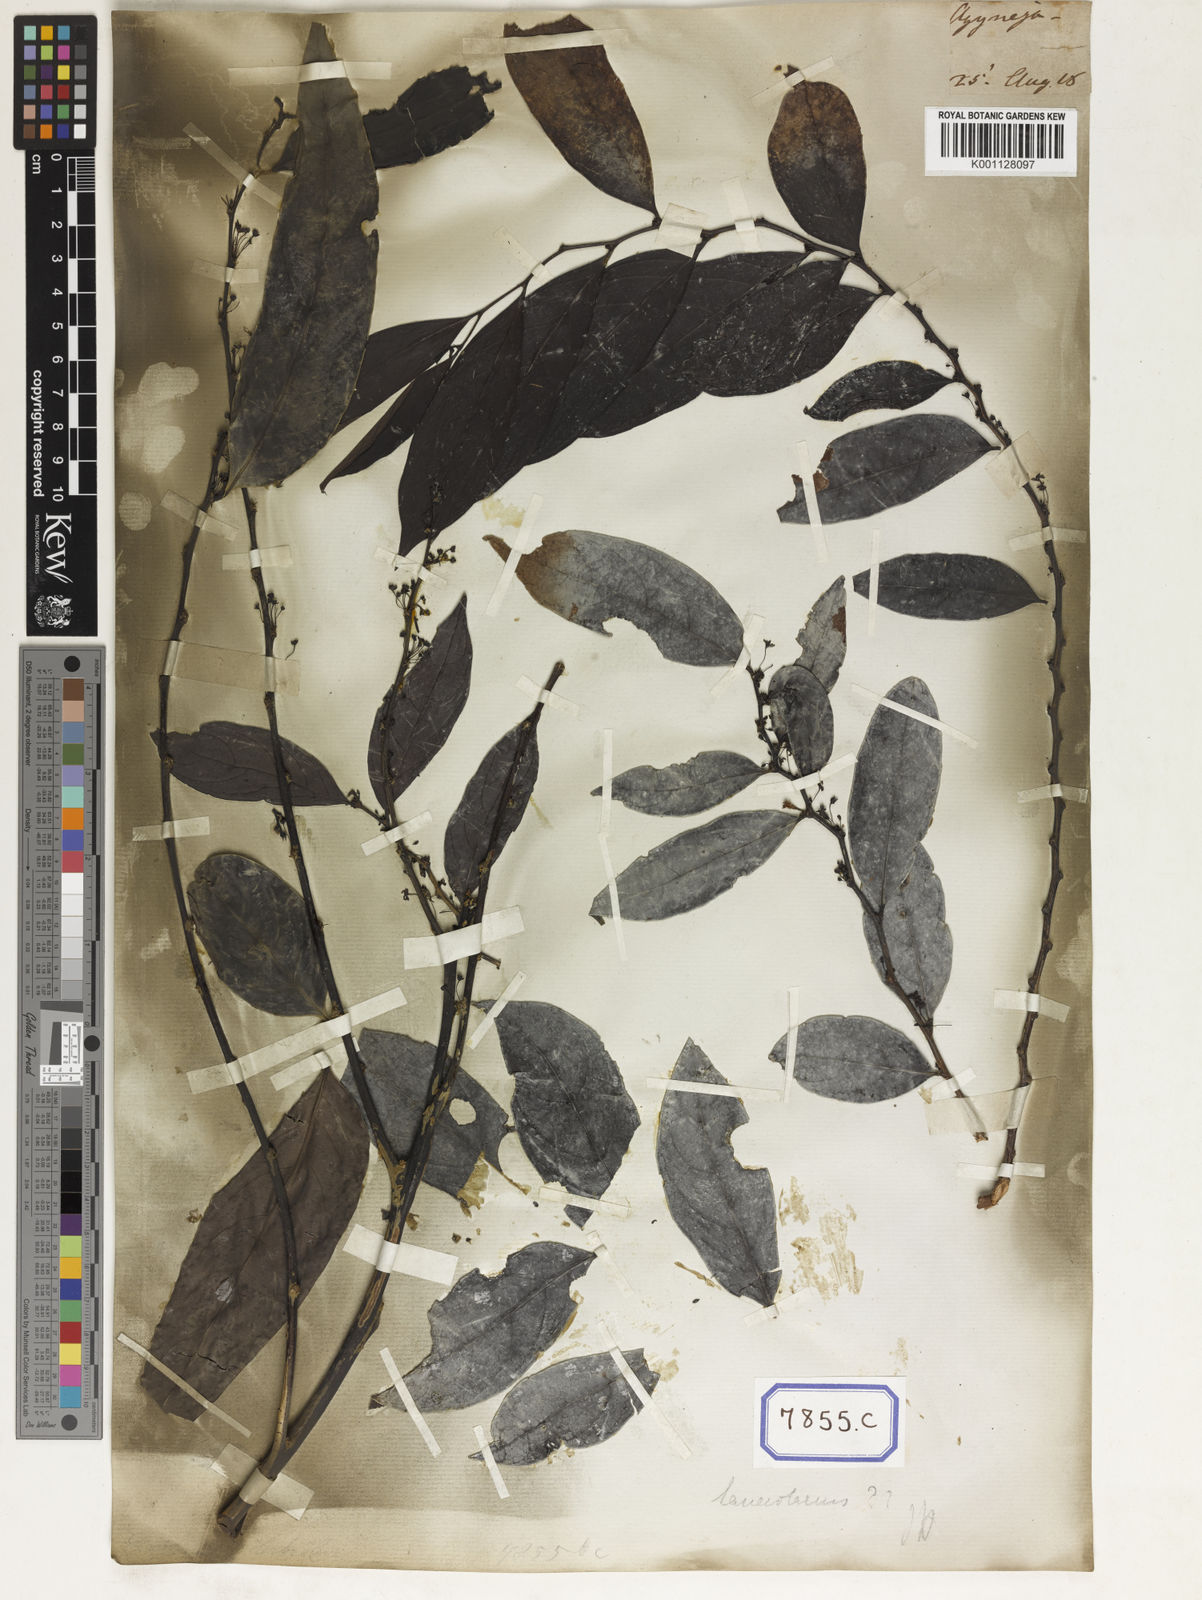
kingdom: Plantae
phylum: Tracheophyta
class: Magnoliopsida
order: Malpighiales
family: Euphorbiaceae
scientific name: Euphorbiaceae
